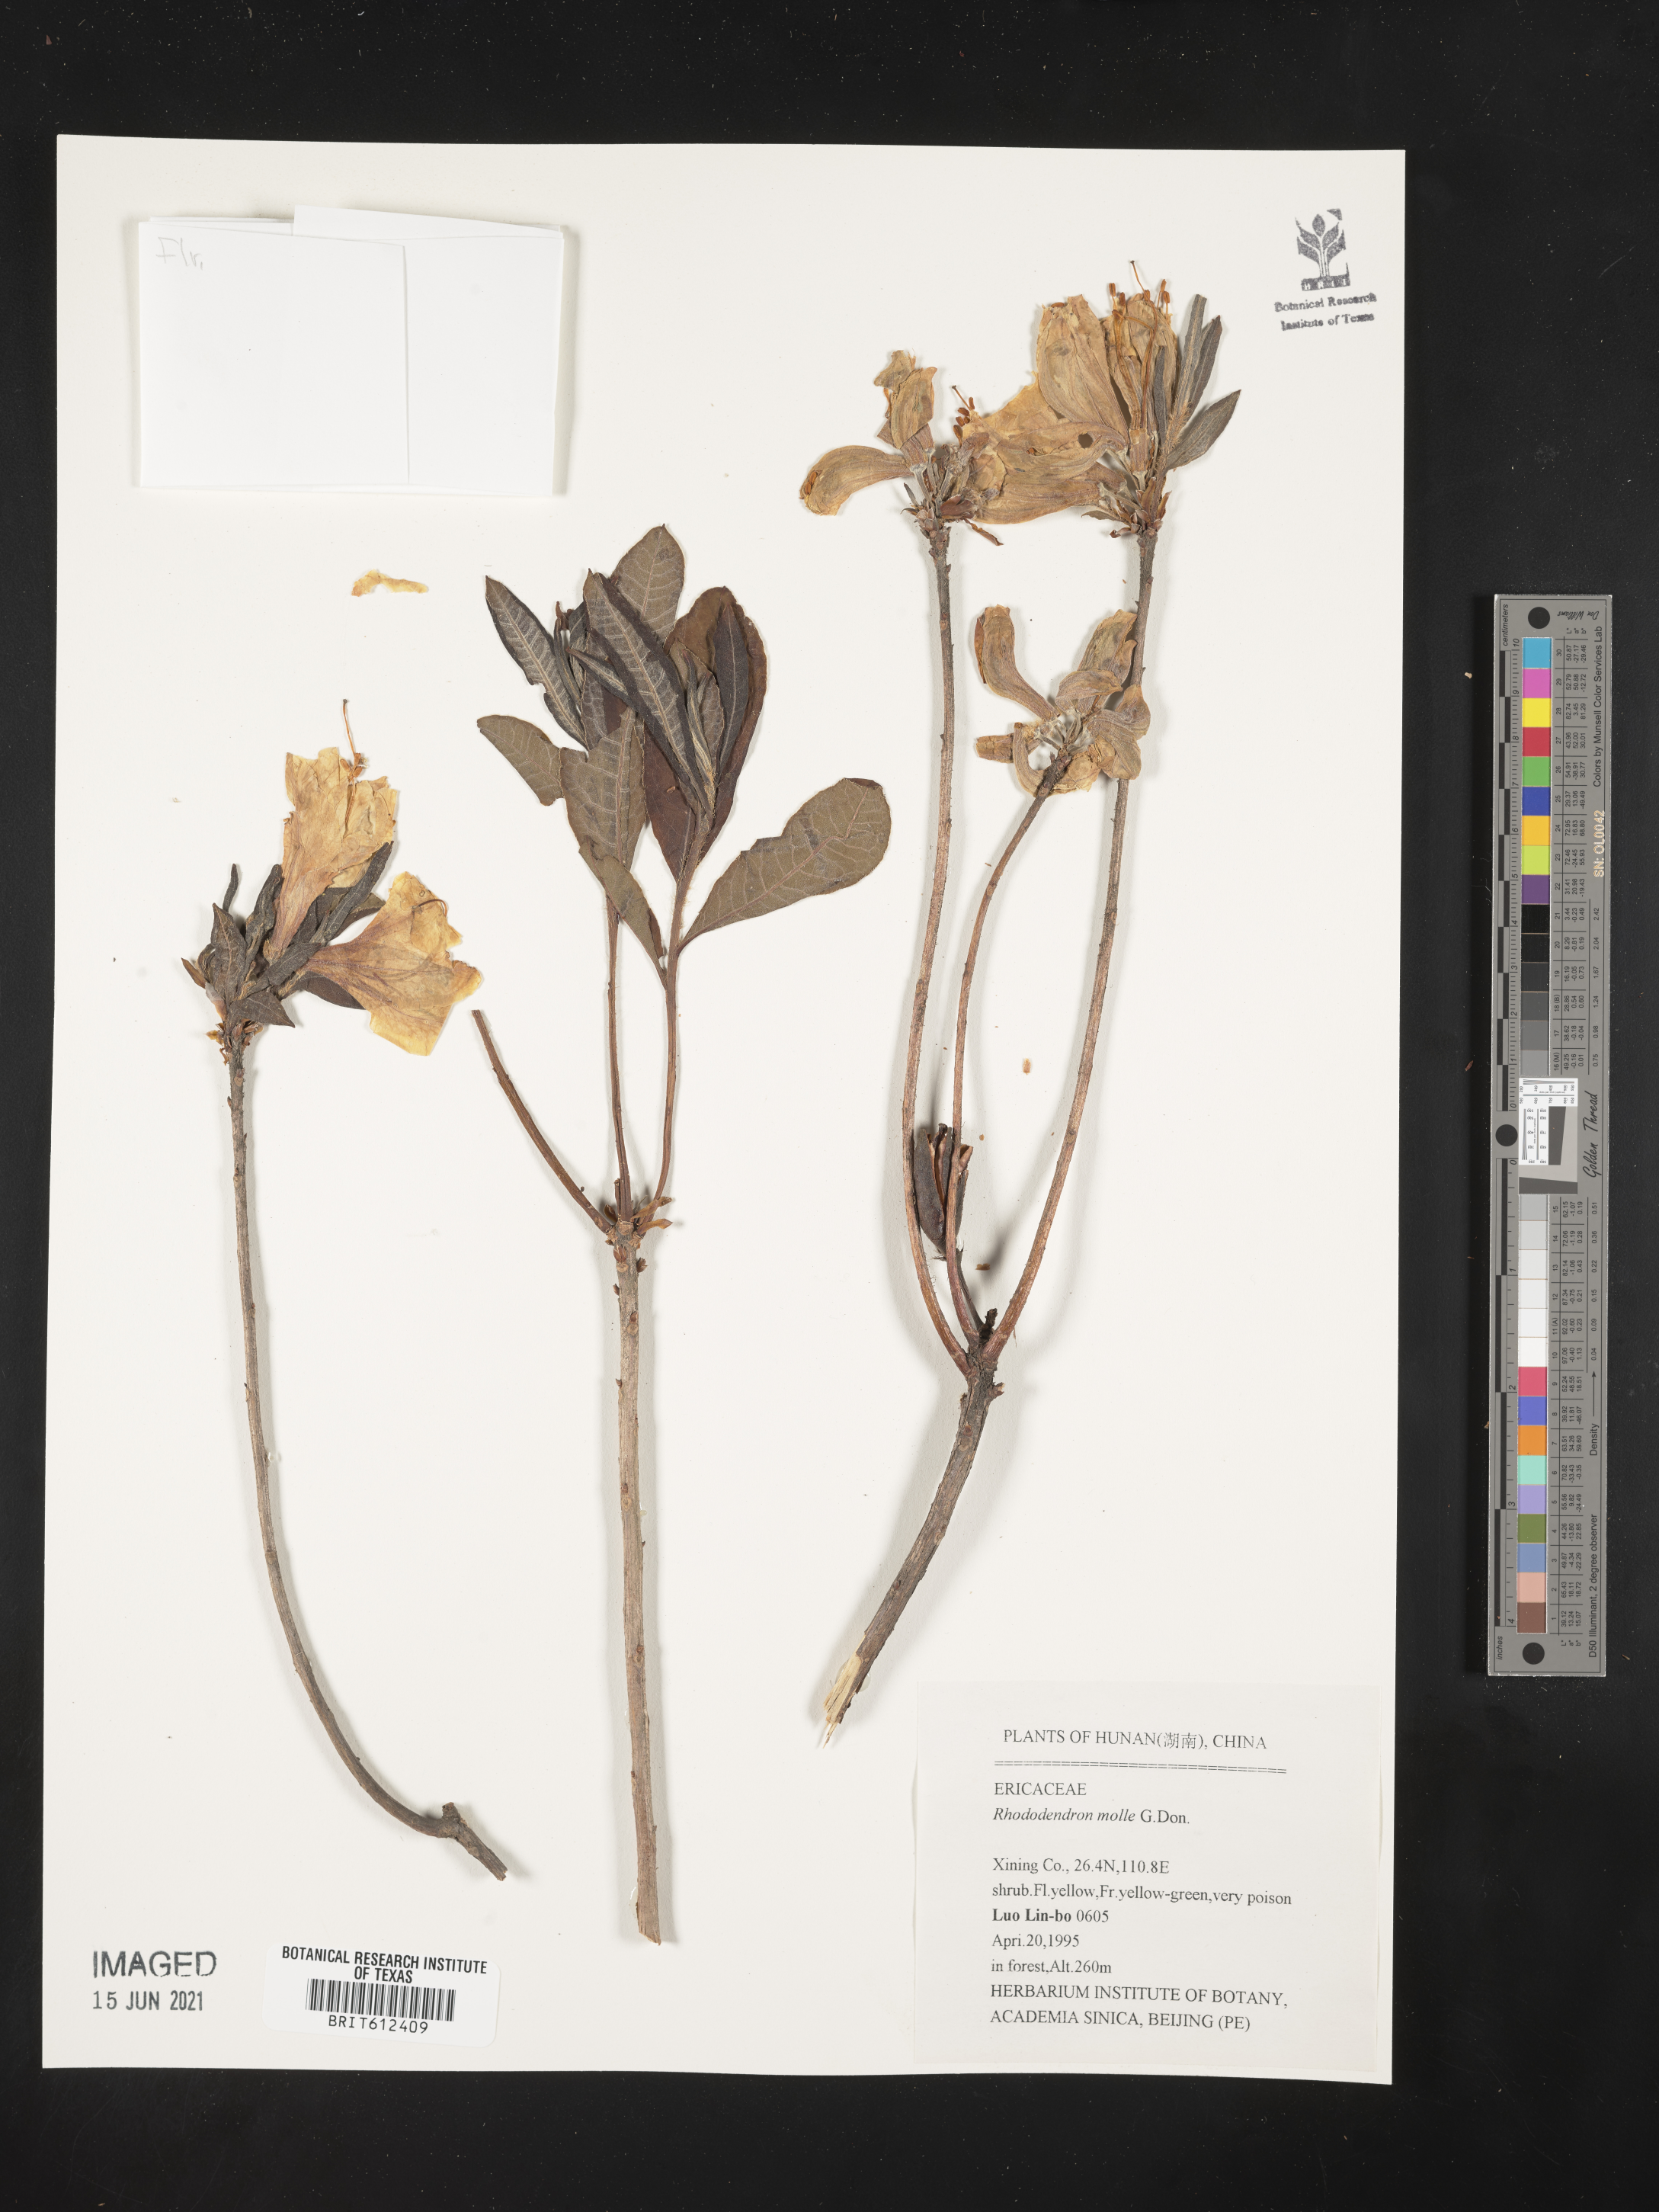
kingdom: Plantae
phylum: Tracheophyta
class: Magnoliopsida
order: Ericales
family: Ericaceae
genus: Rhododendron
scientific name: Rhododendron molle
